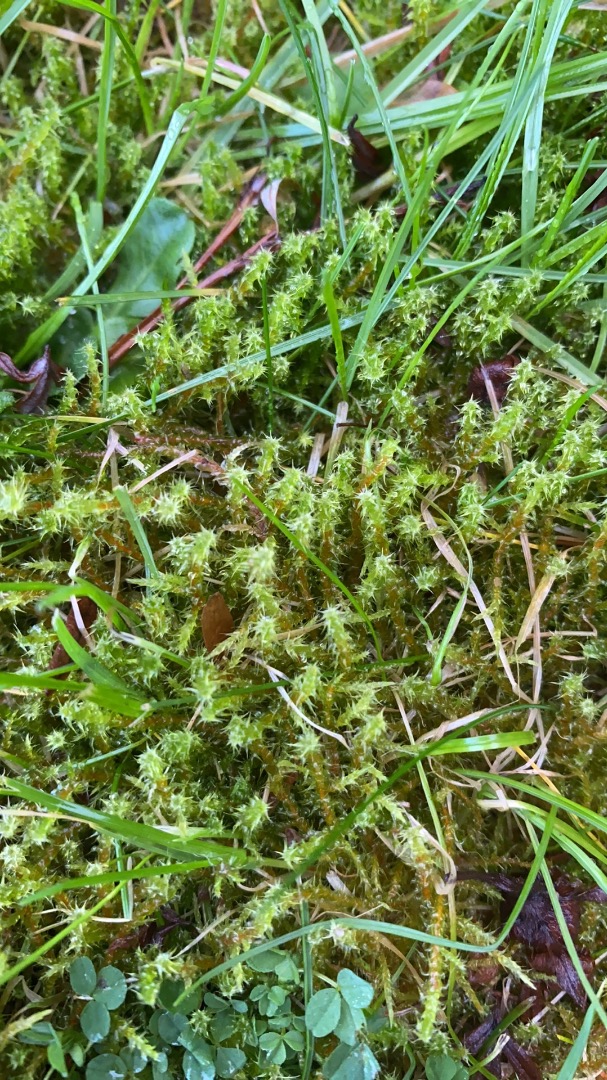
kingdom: Plantae
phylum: Bryophyta
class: Bryopsida
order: Hypnales
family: Hylocomiaceae
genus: Rhytidiadelphus
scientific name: Rhytidiadelphus squarrosus
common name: Plæne-kransemos
